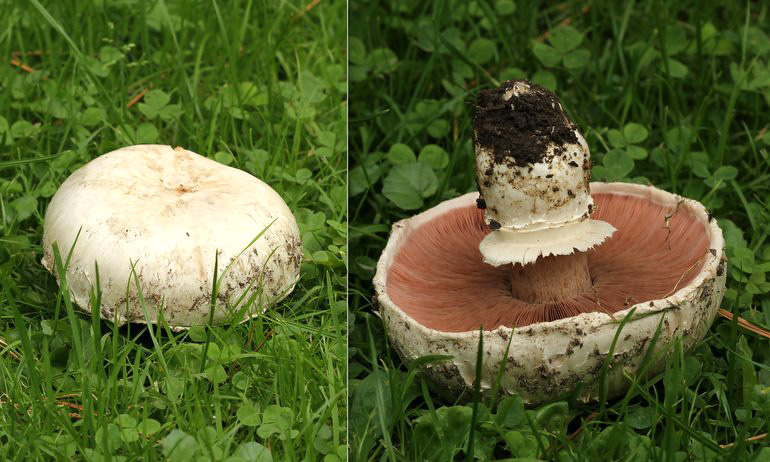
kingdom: Fungi
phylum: Basidiomycota
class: Agaricomycetes
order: Agaricales
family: Agaricaceae
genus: Agaricus
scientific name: Agaricus bitorquis
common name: vej-champignon
